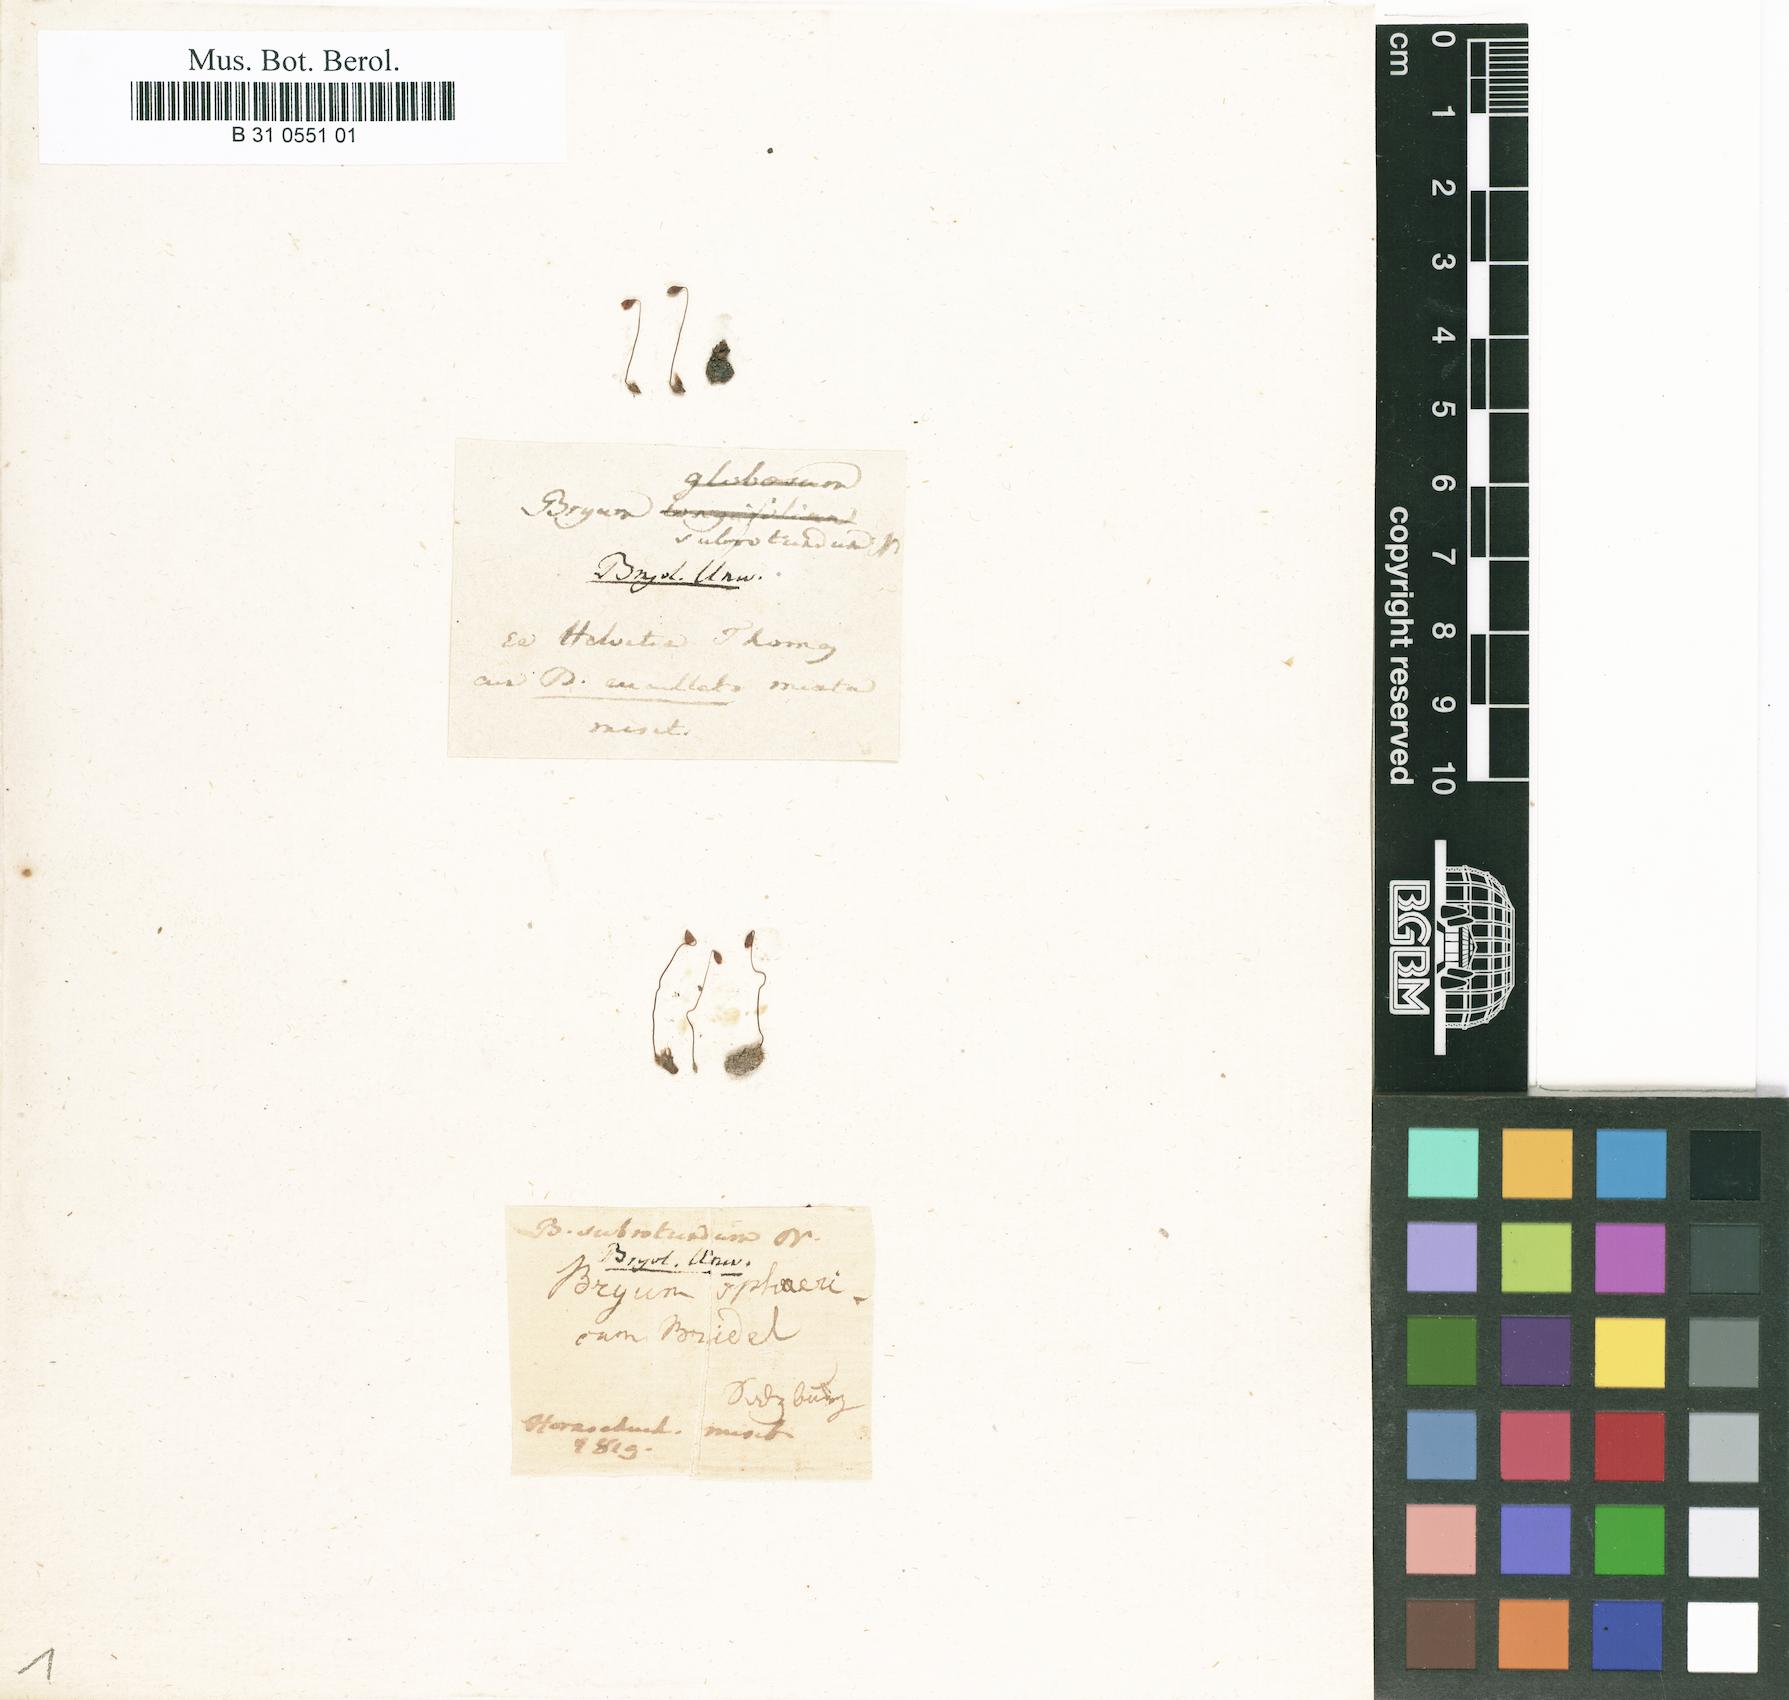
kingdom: Plantae
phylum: Bryophyta
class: Bryopsida
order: Bryales
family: Bryaceae
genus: Ptychostomum
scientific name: Ptychostomum pallescens
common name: Tall-clustered thread-moss
